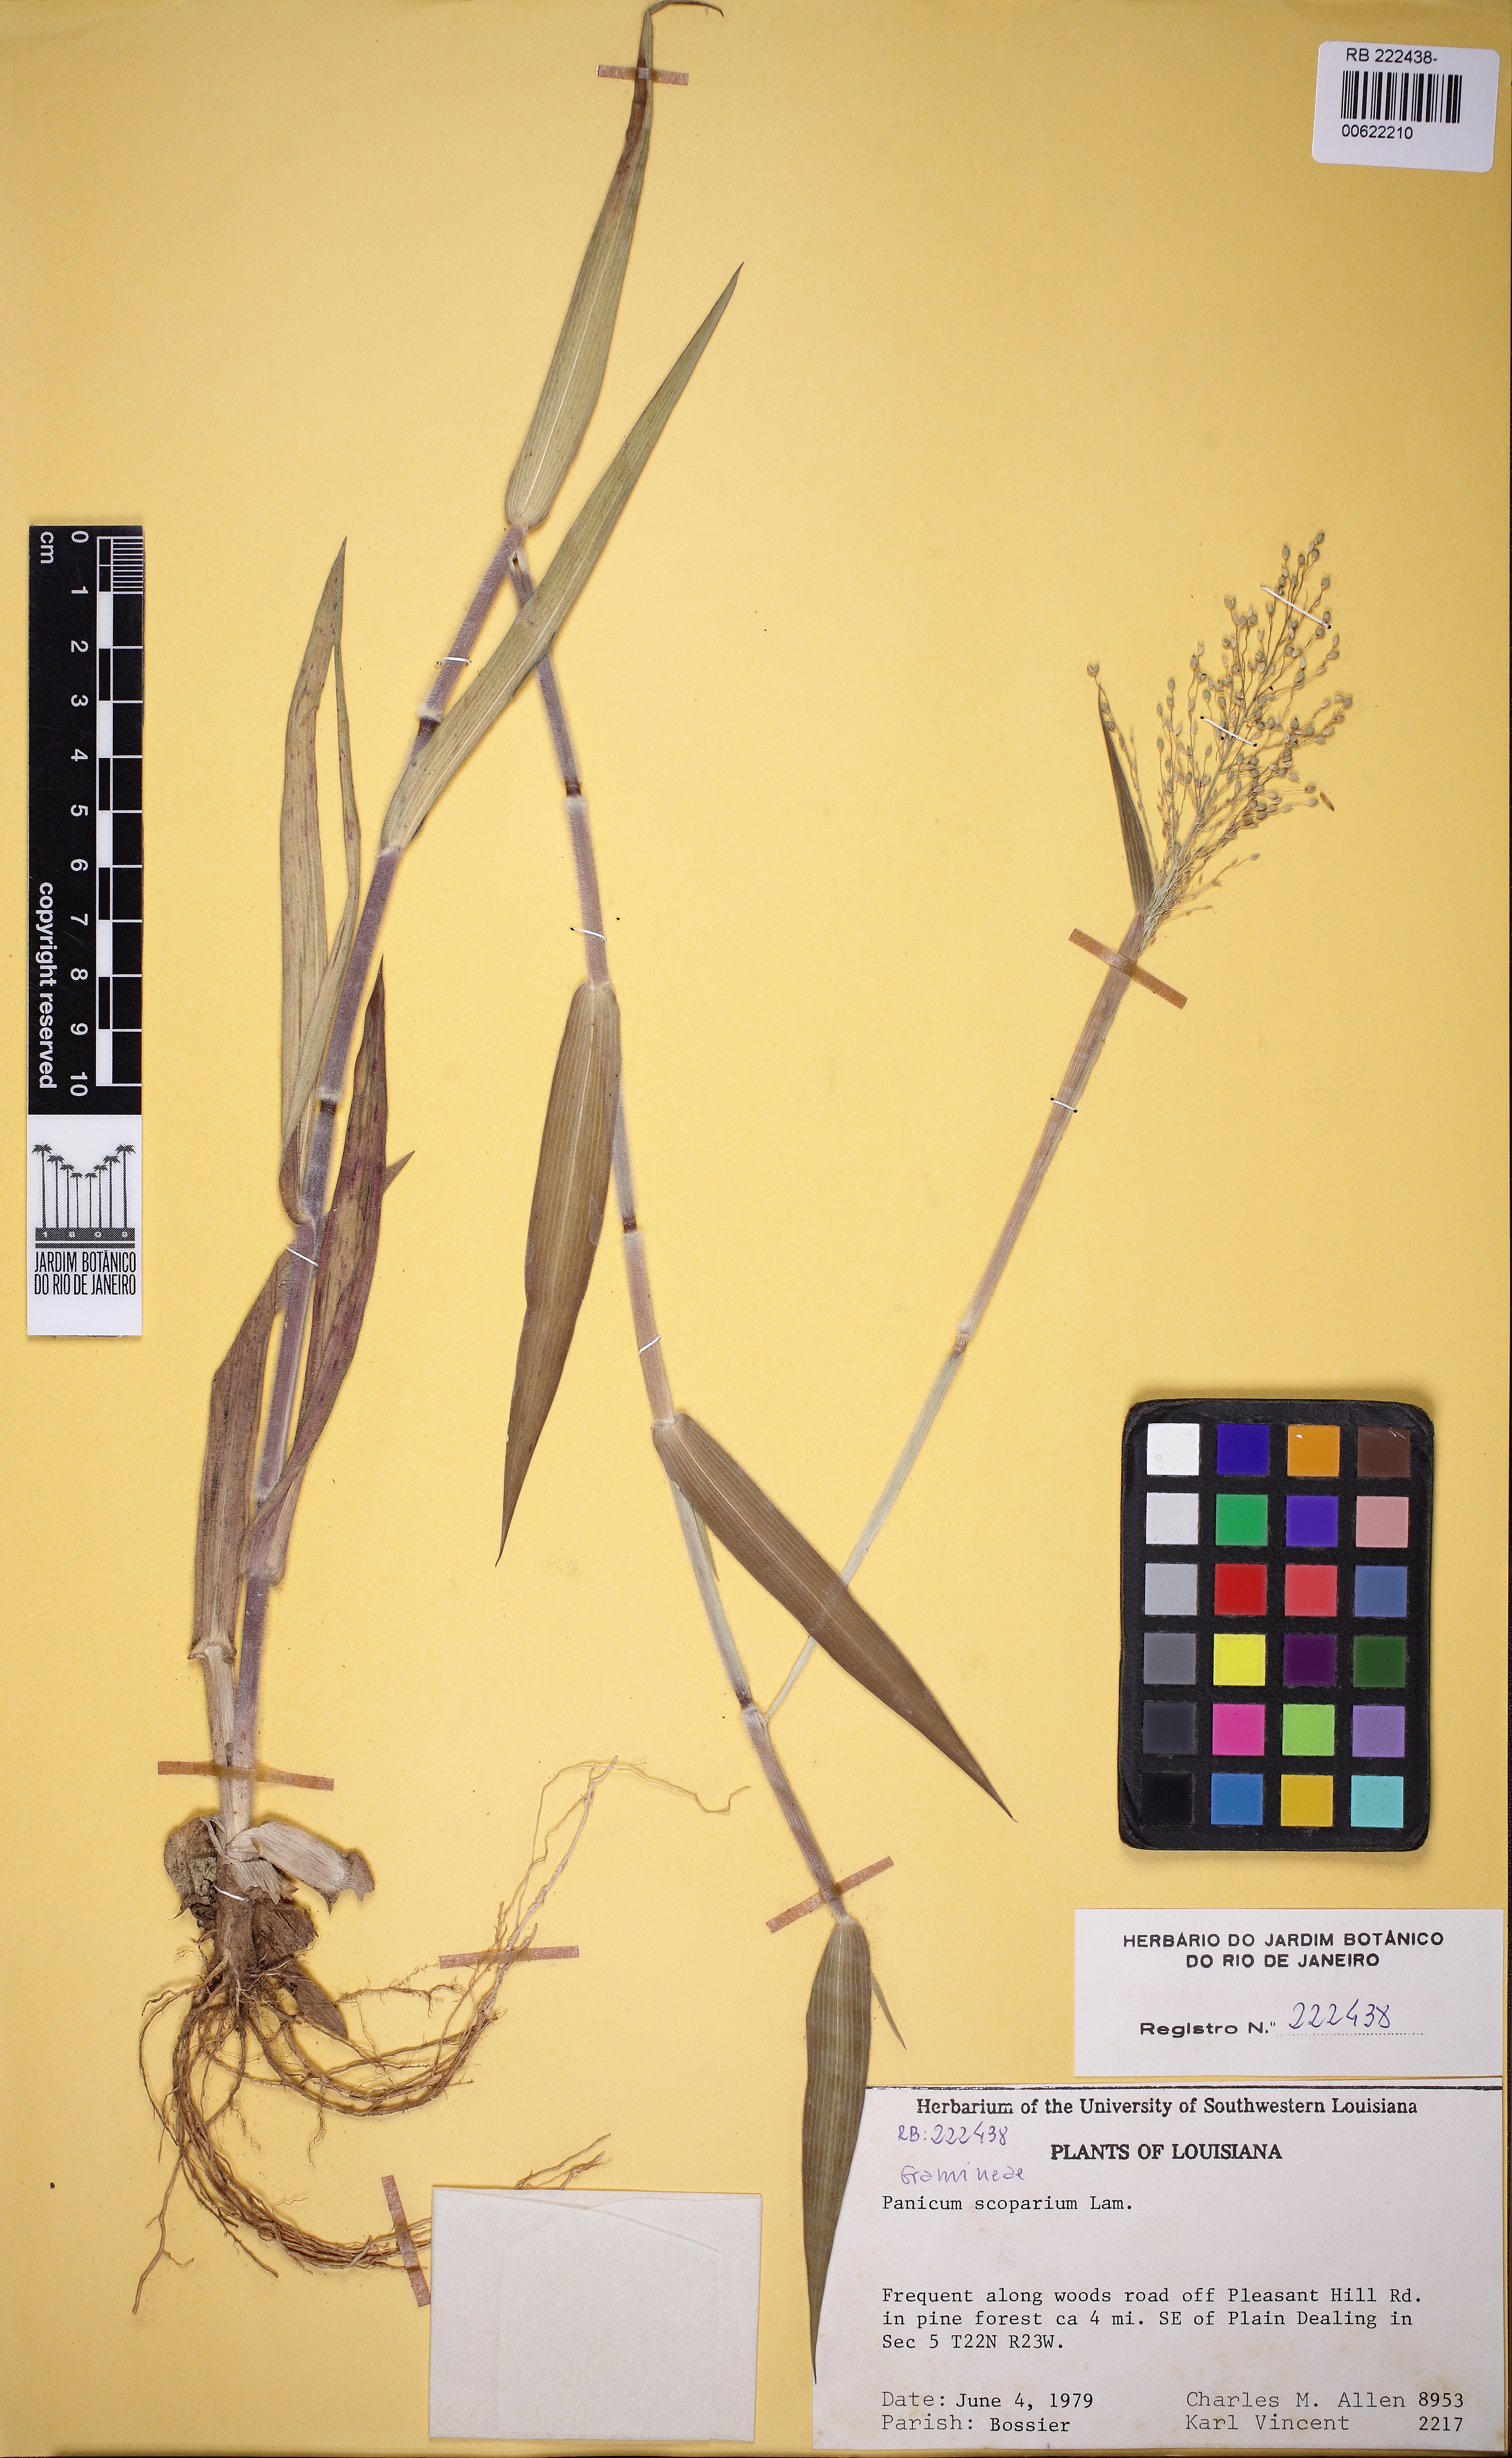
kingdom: Plantae
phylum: Tracheophyta
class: Liliopsida
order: Poales
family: Poaceae
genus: Panicum
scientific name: Panicum rudgei
